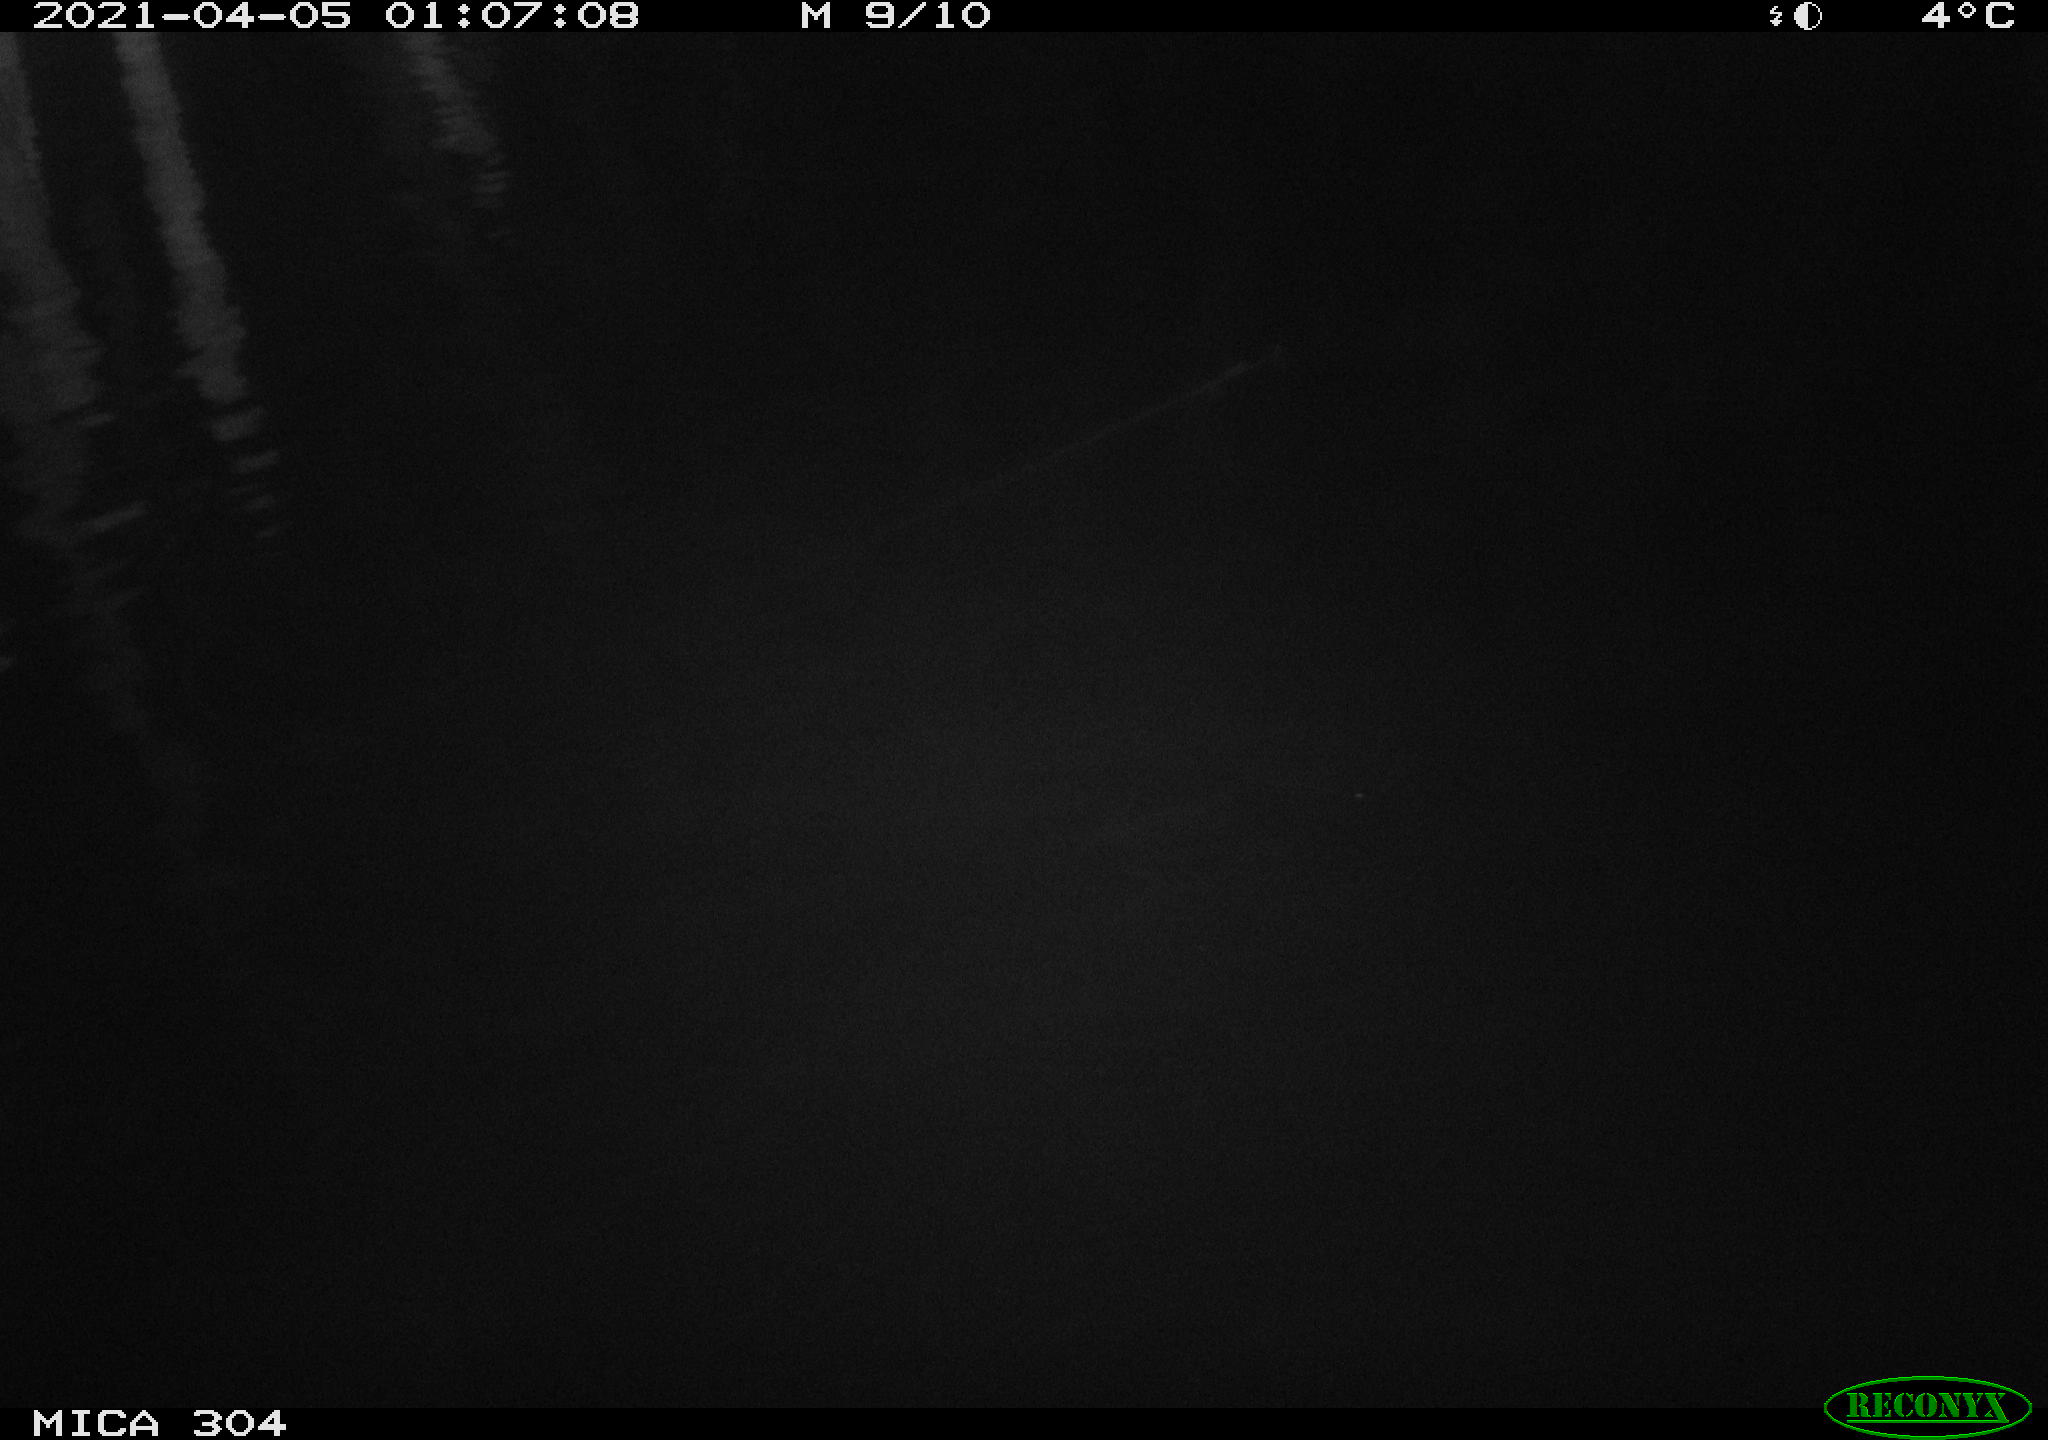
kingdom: Animalia
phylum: Chordata
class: Aves
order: Anseriformes
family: Anatidae
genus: Anas
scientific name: Anas
